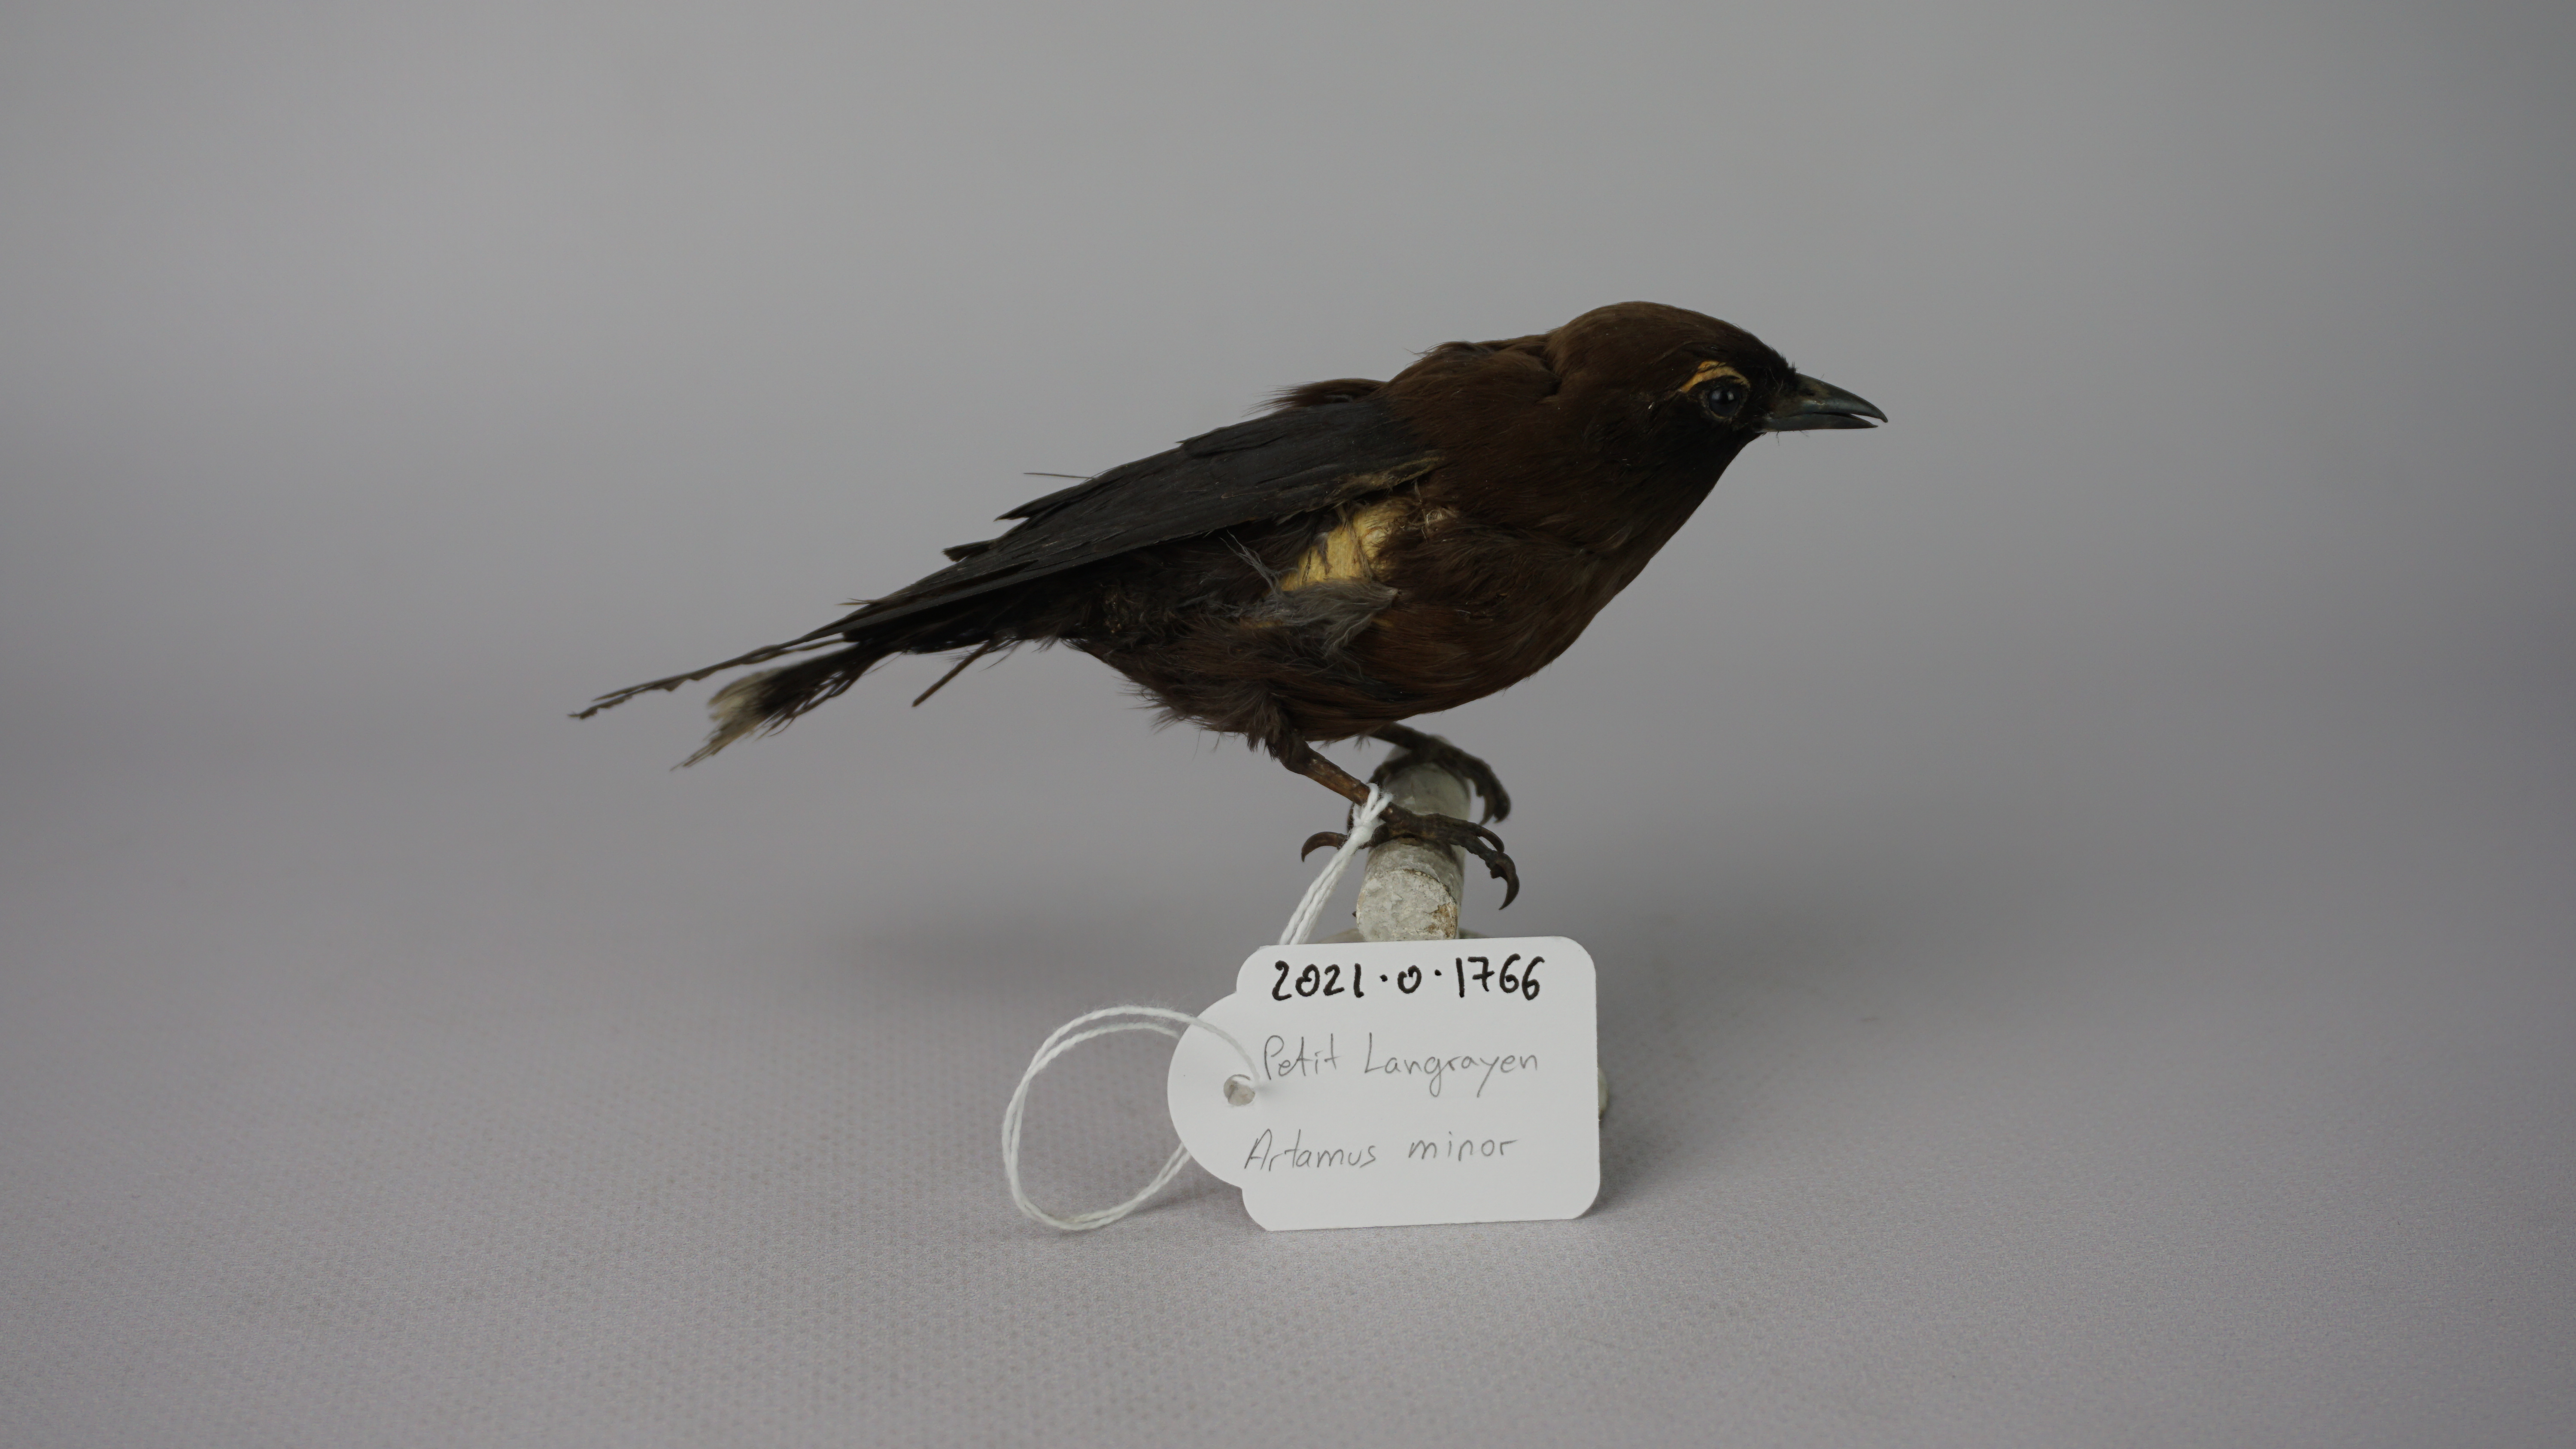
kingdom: Animalia
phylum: Chordata
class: Aves
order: Passeriformes
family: Artamidae
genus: Artamus
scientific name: Artamus minor
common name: Little woodswallow
